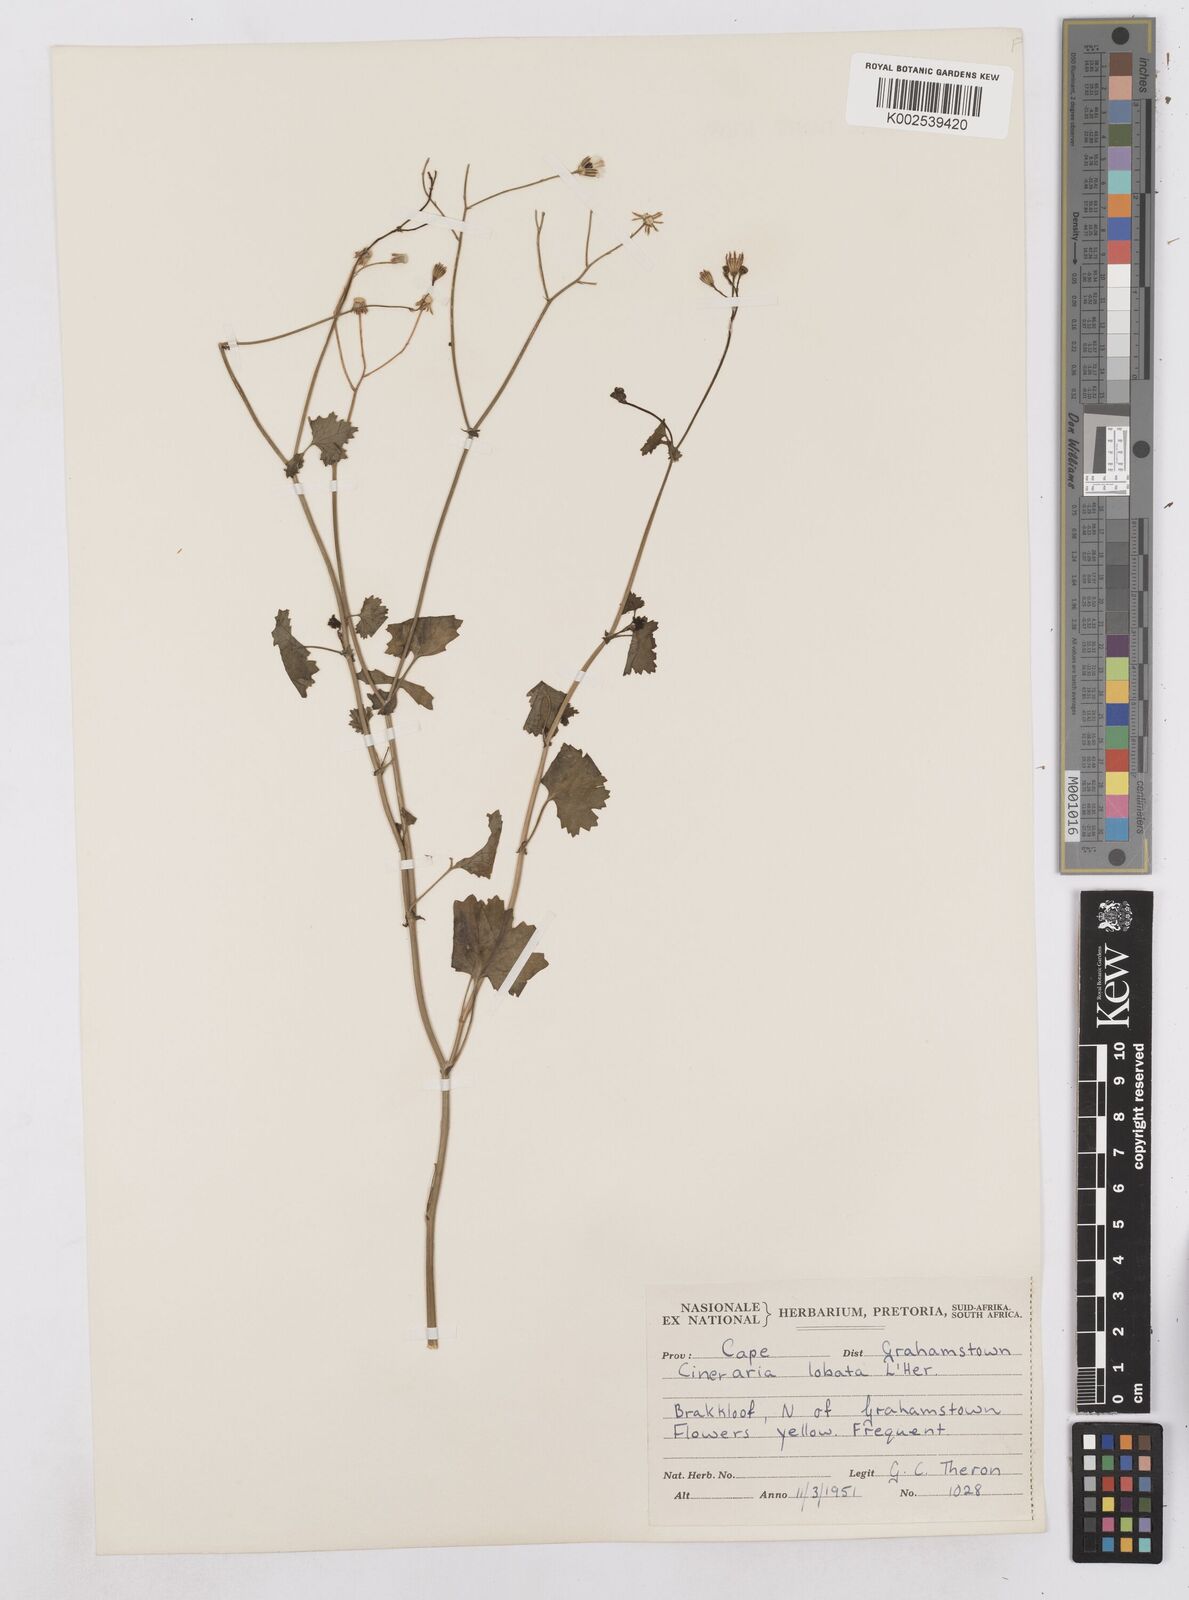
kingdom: Plantae
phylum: Tracheophyta
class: Magnoliopsida
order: Asterales
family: Asteraceae
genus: Cineraria
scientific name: Cineraria
